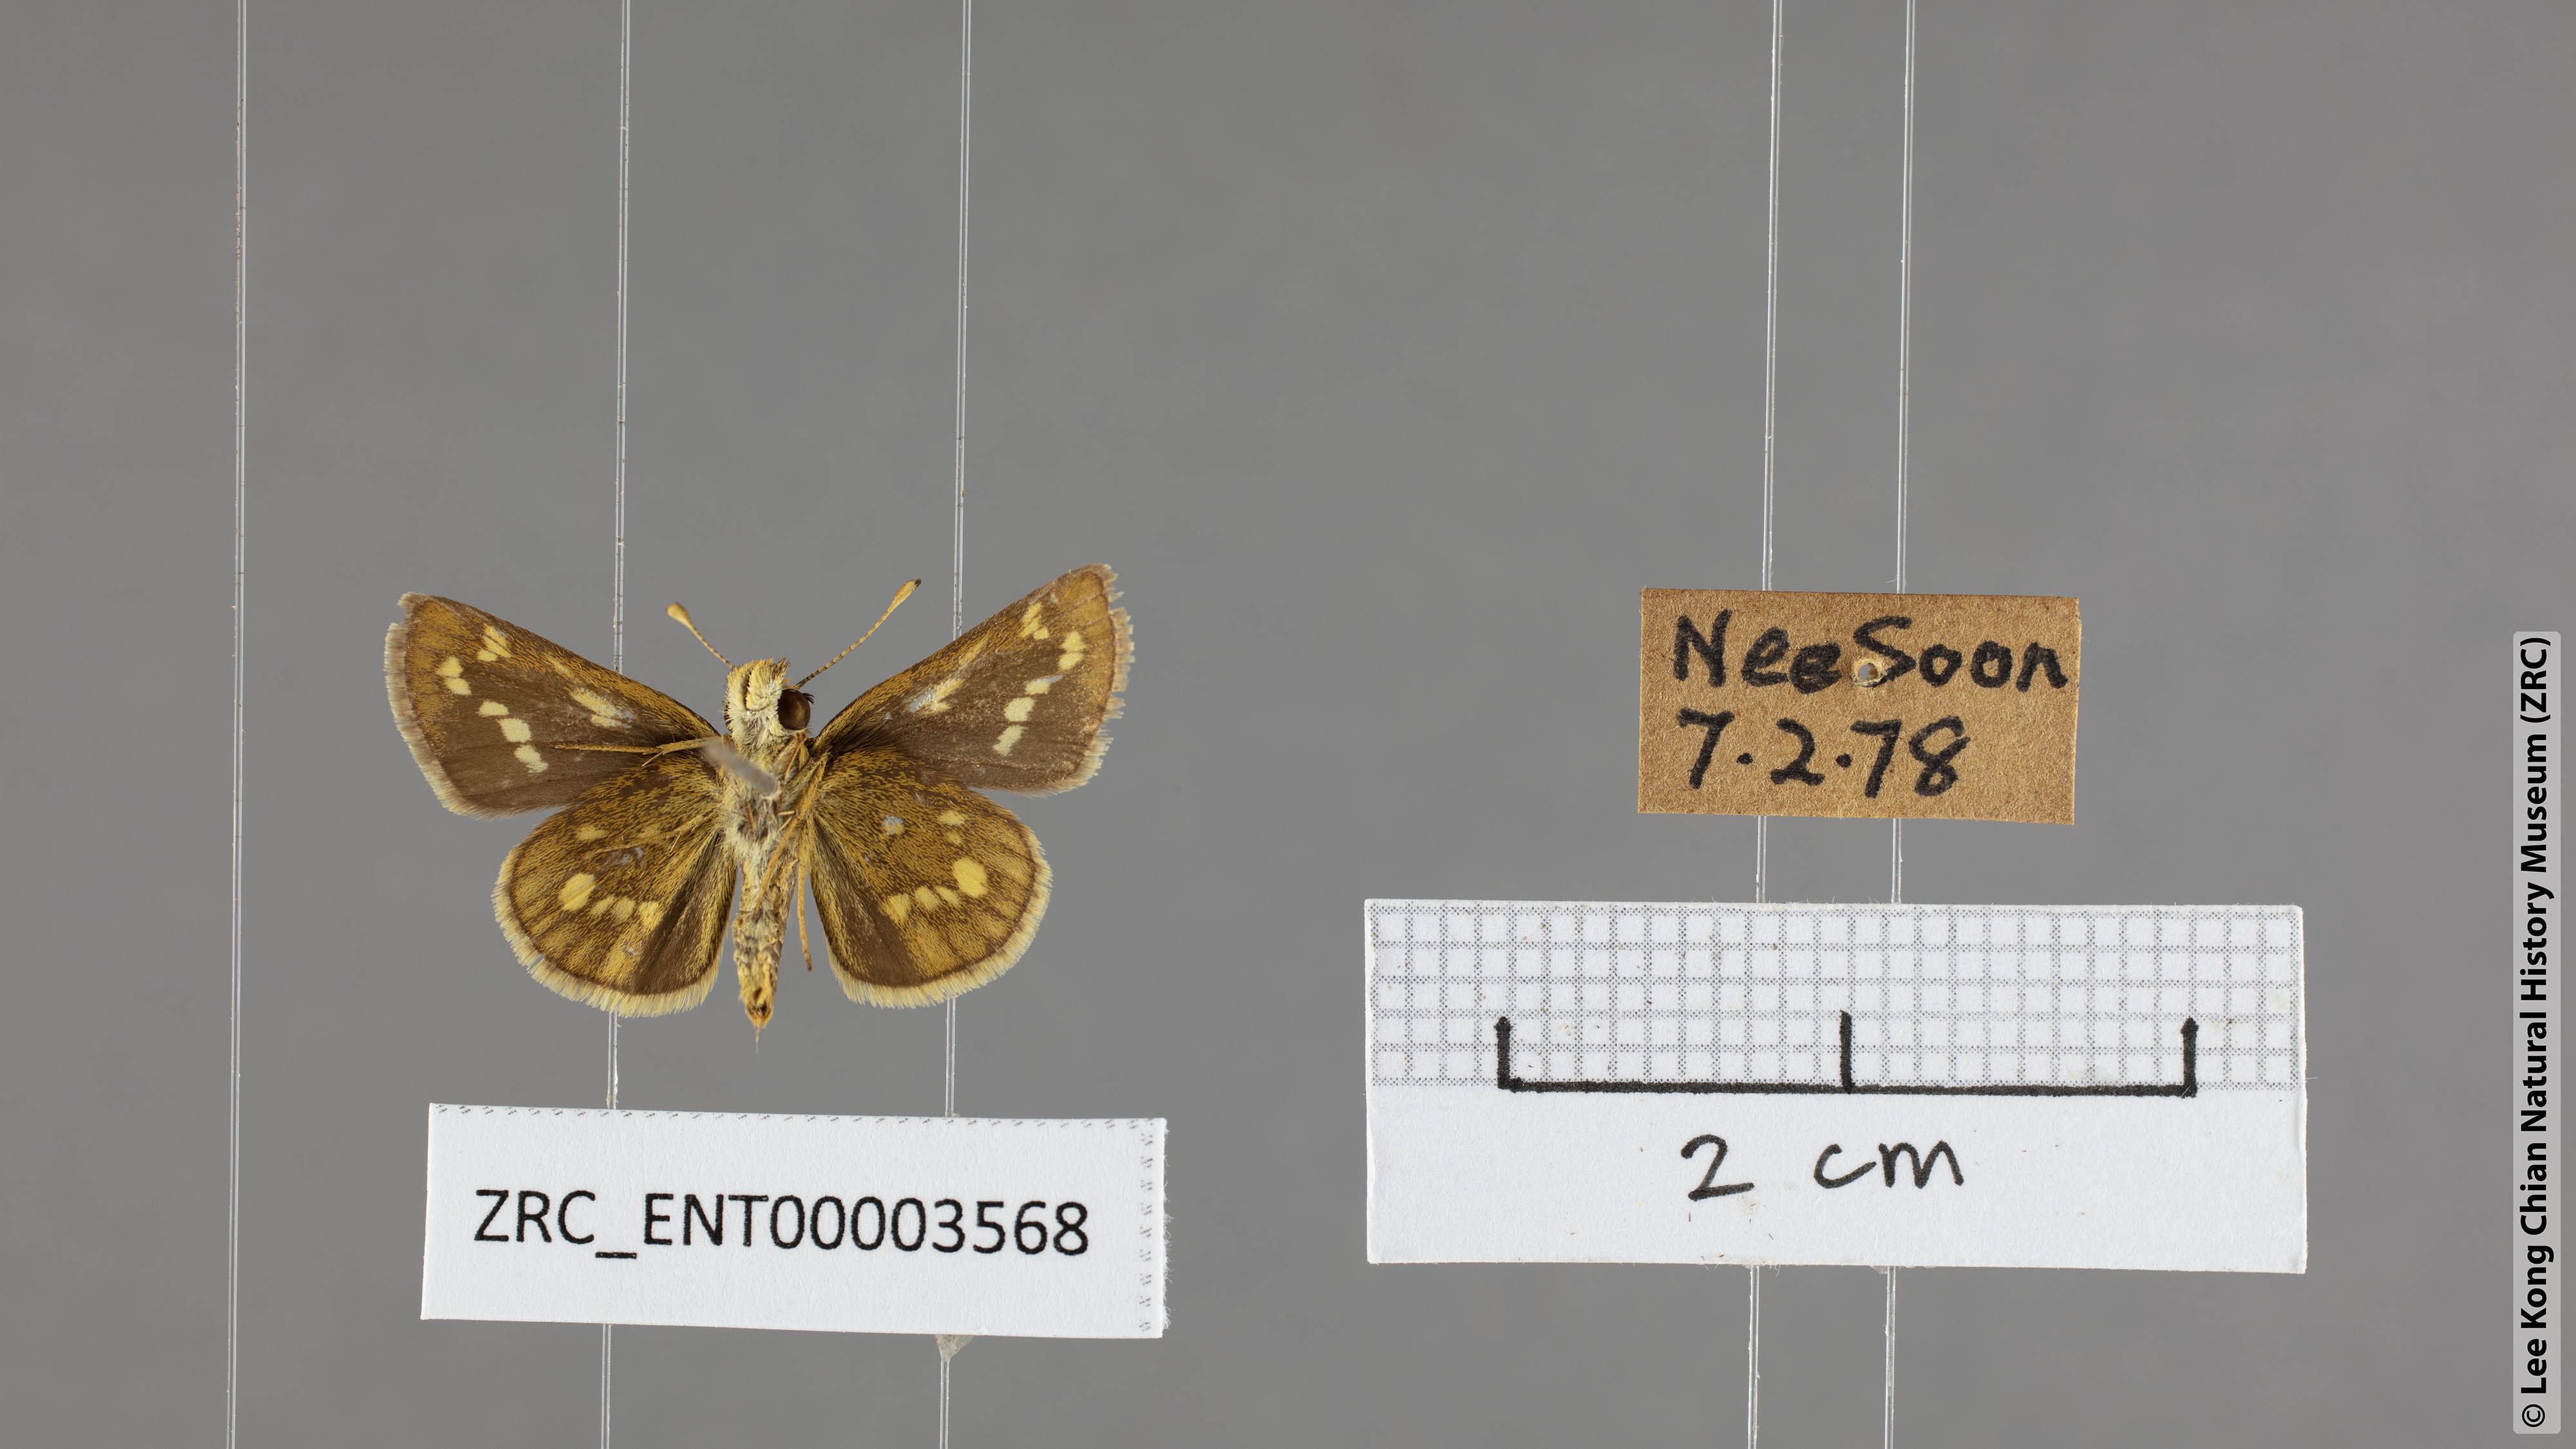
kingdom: Animalia
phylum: Arthropoda
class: Insecta
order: Lepidoptera
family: Hesperiidae
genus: Taractrocera
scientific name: Taractrocera ardonia
